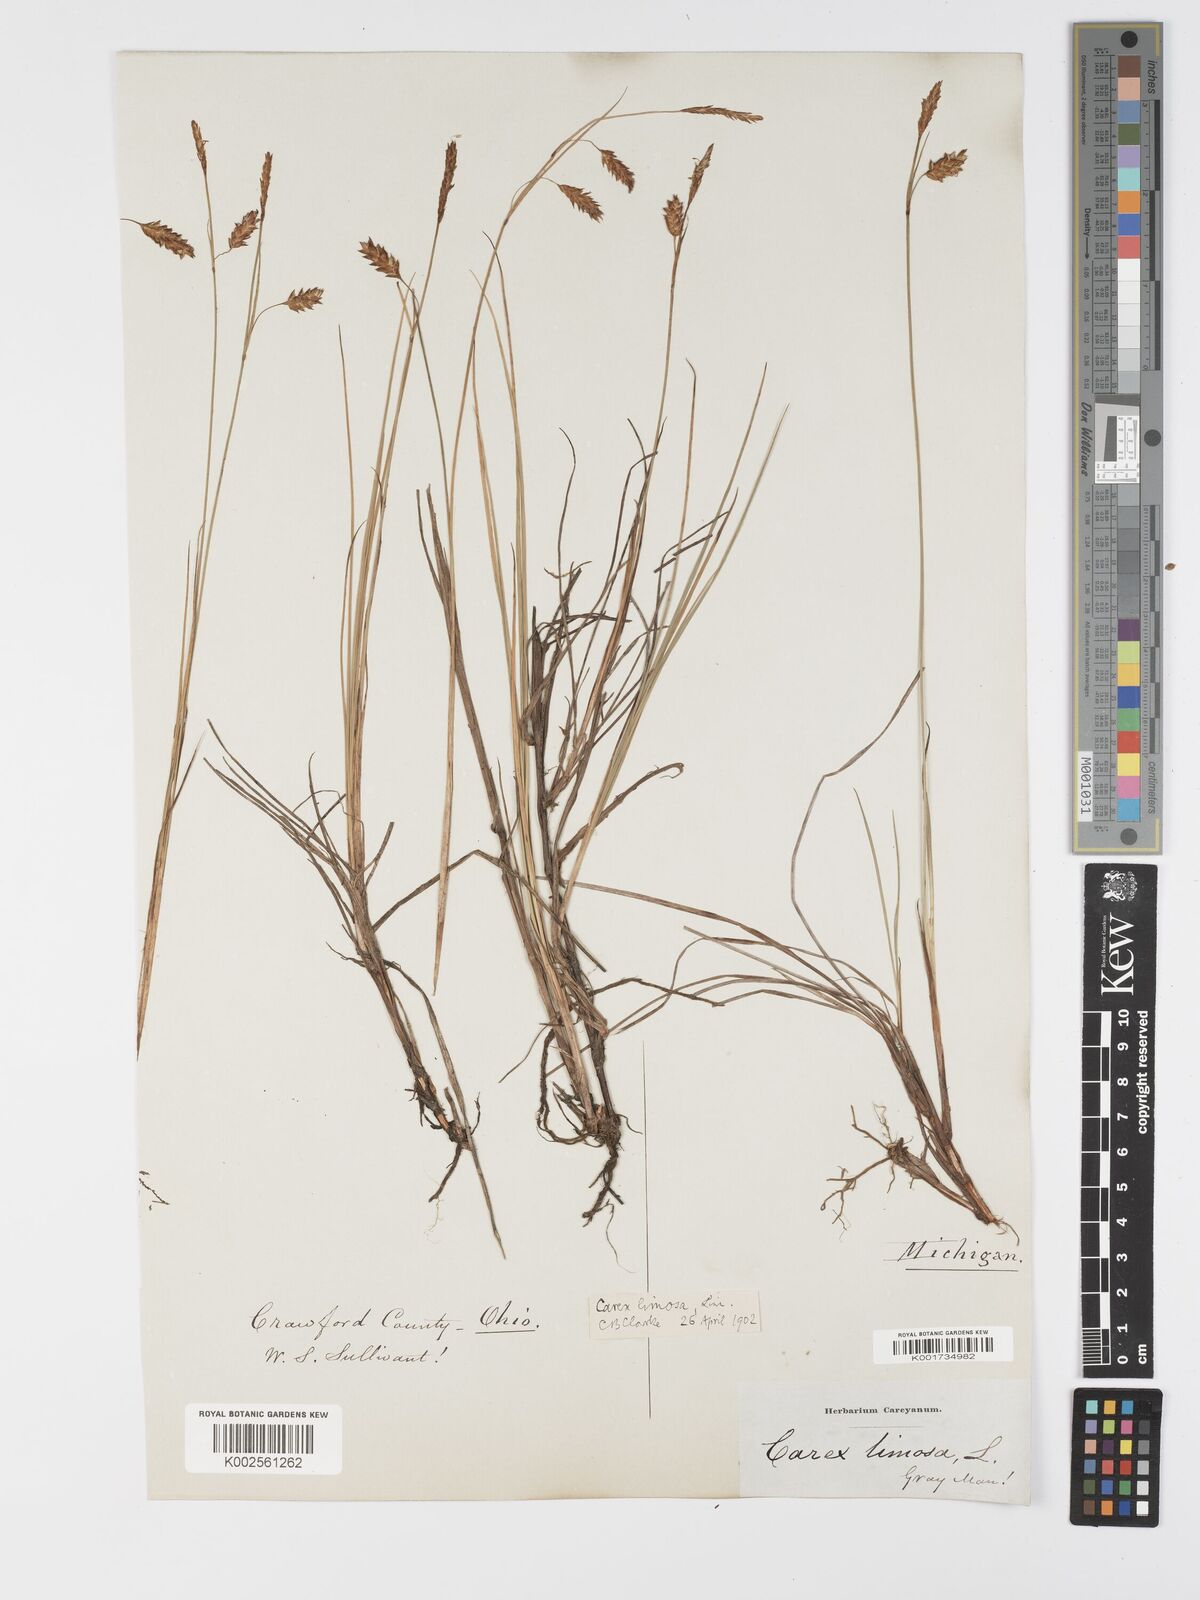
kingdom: Plantae
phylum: Tracheophyta
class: Liliopsida
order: Poales
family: Cyperaceae
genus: Carex
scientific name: Carex limosa
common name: Bog sedge
